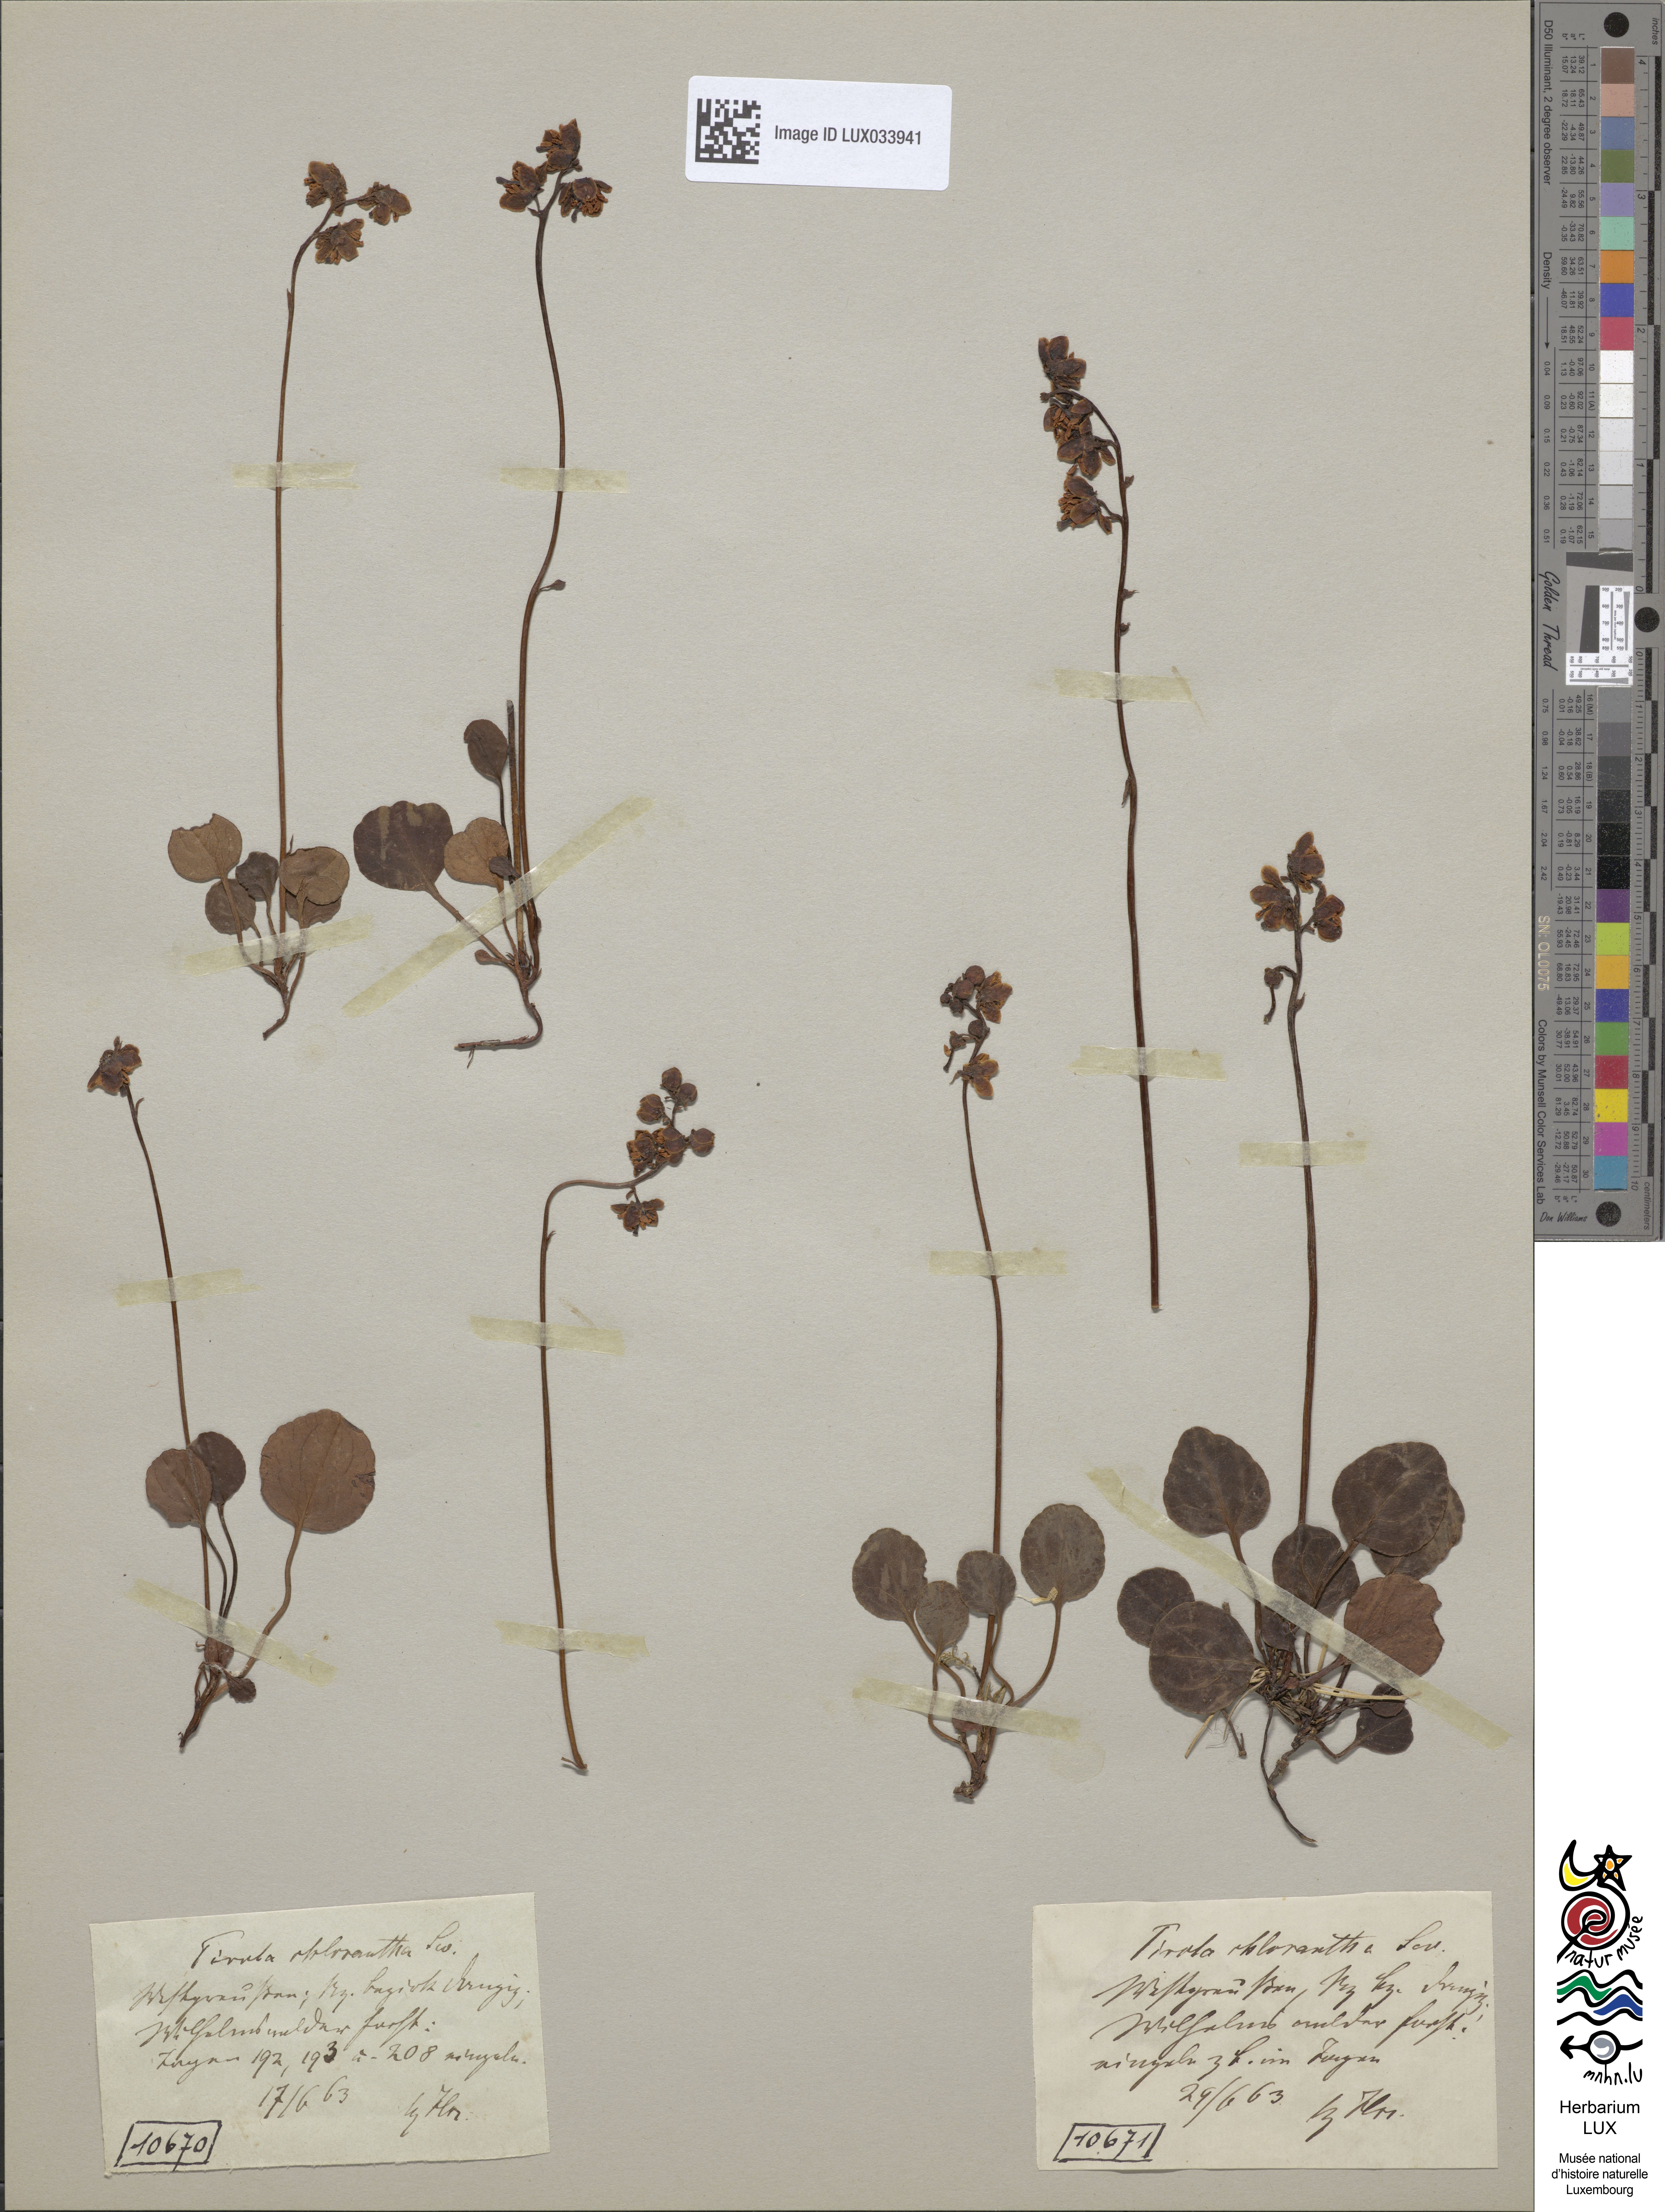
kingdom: Plantae
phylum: Tracheophyta
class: Magnoliopsida
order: Ericales
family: Ericaceae
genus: Pyrola
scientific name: Pyrola chlorantha
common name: Green wintergreen
